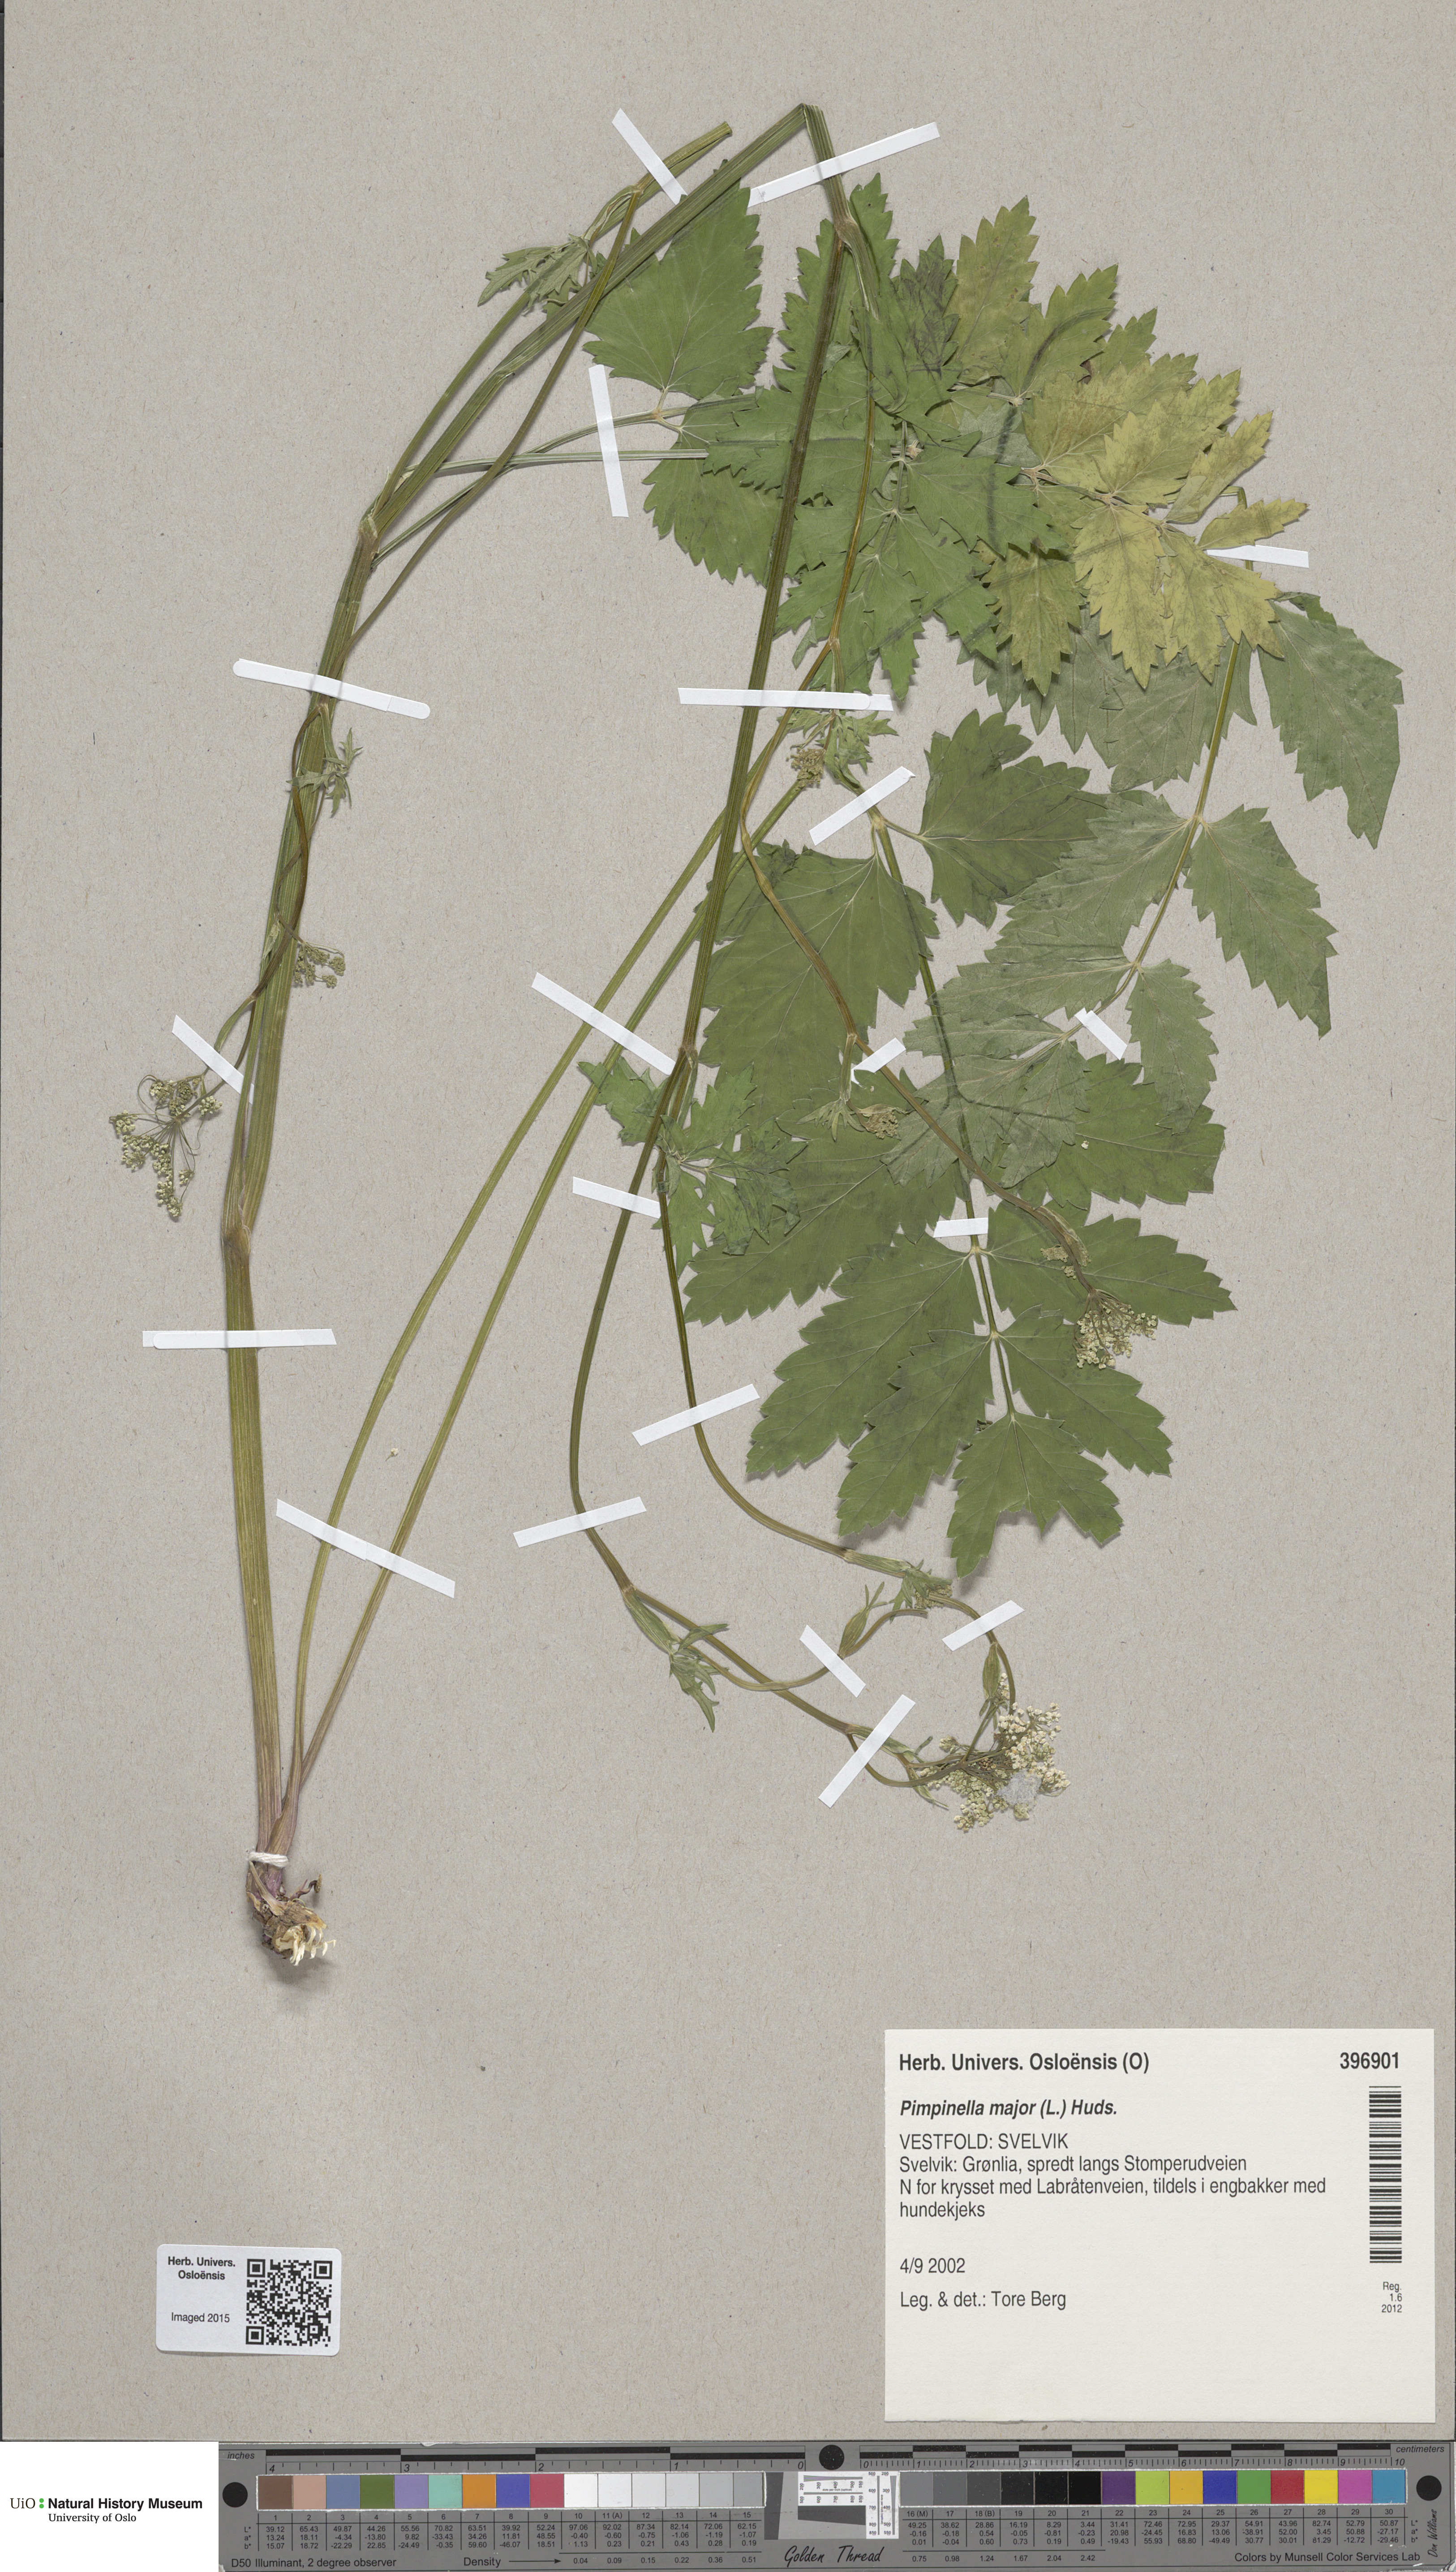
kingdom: Plantae
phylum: Tracheophyta
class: Magnoliopsida
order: Apiales
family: Apiaceae
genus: Pimpinella
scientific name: Pimpinella major
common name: Greater burnet-saxifrage
